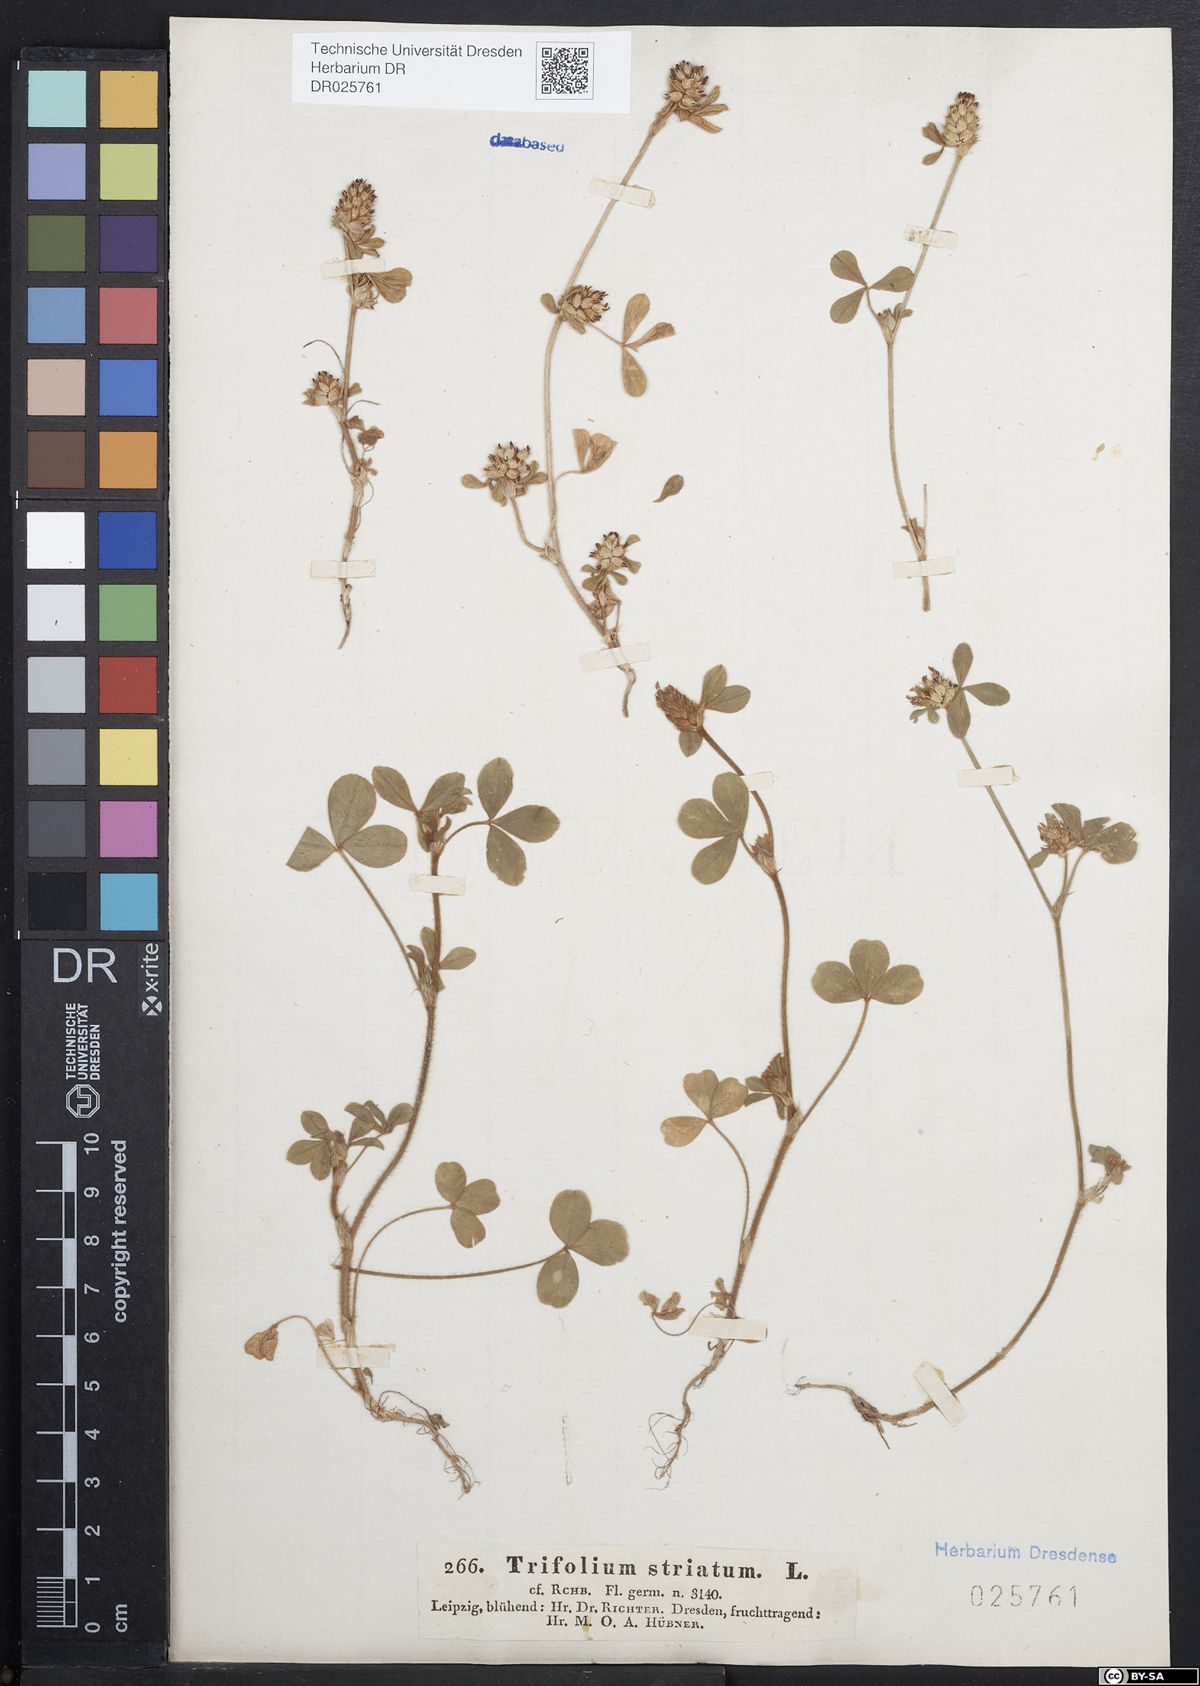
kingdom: Plantae
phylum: Tracheophyta
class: Magnoliopsida
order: Fabales
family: Fabaceae
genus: Trifolium
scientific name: Trifolium striatum
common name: Knotted clover
